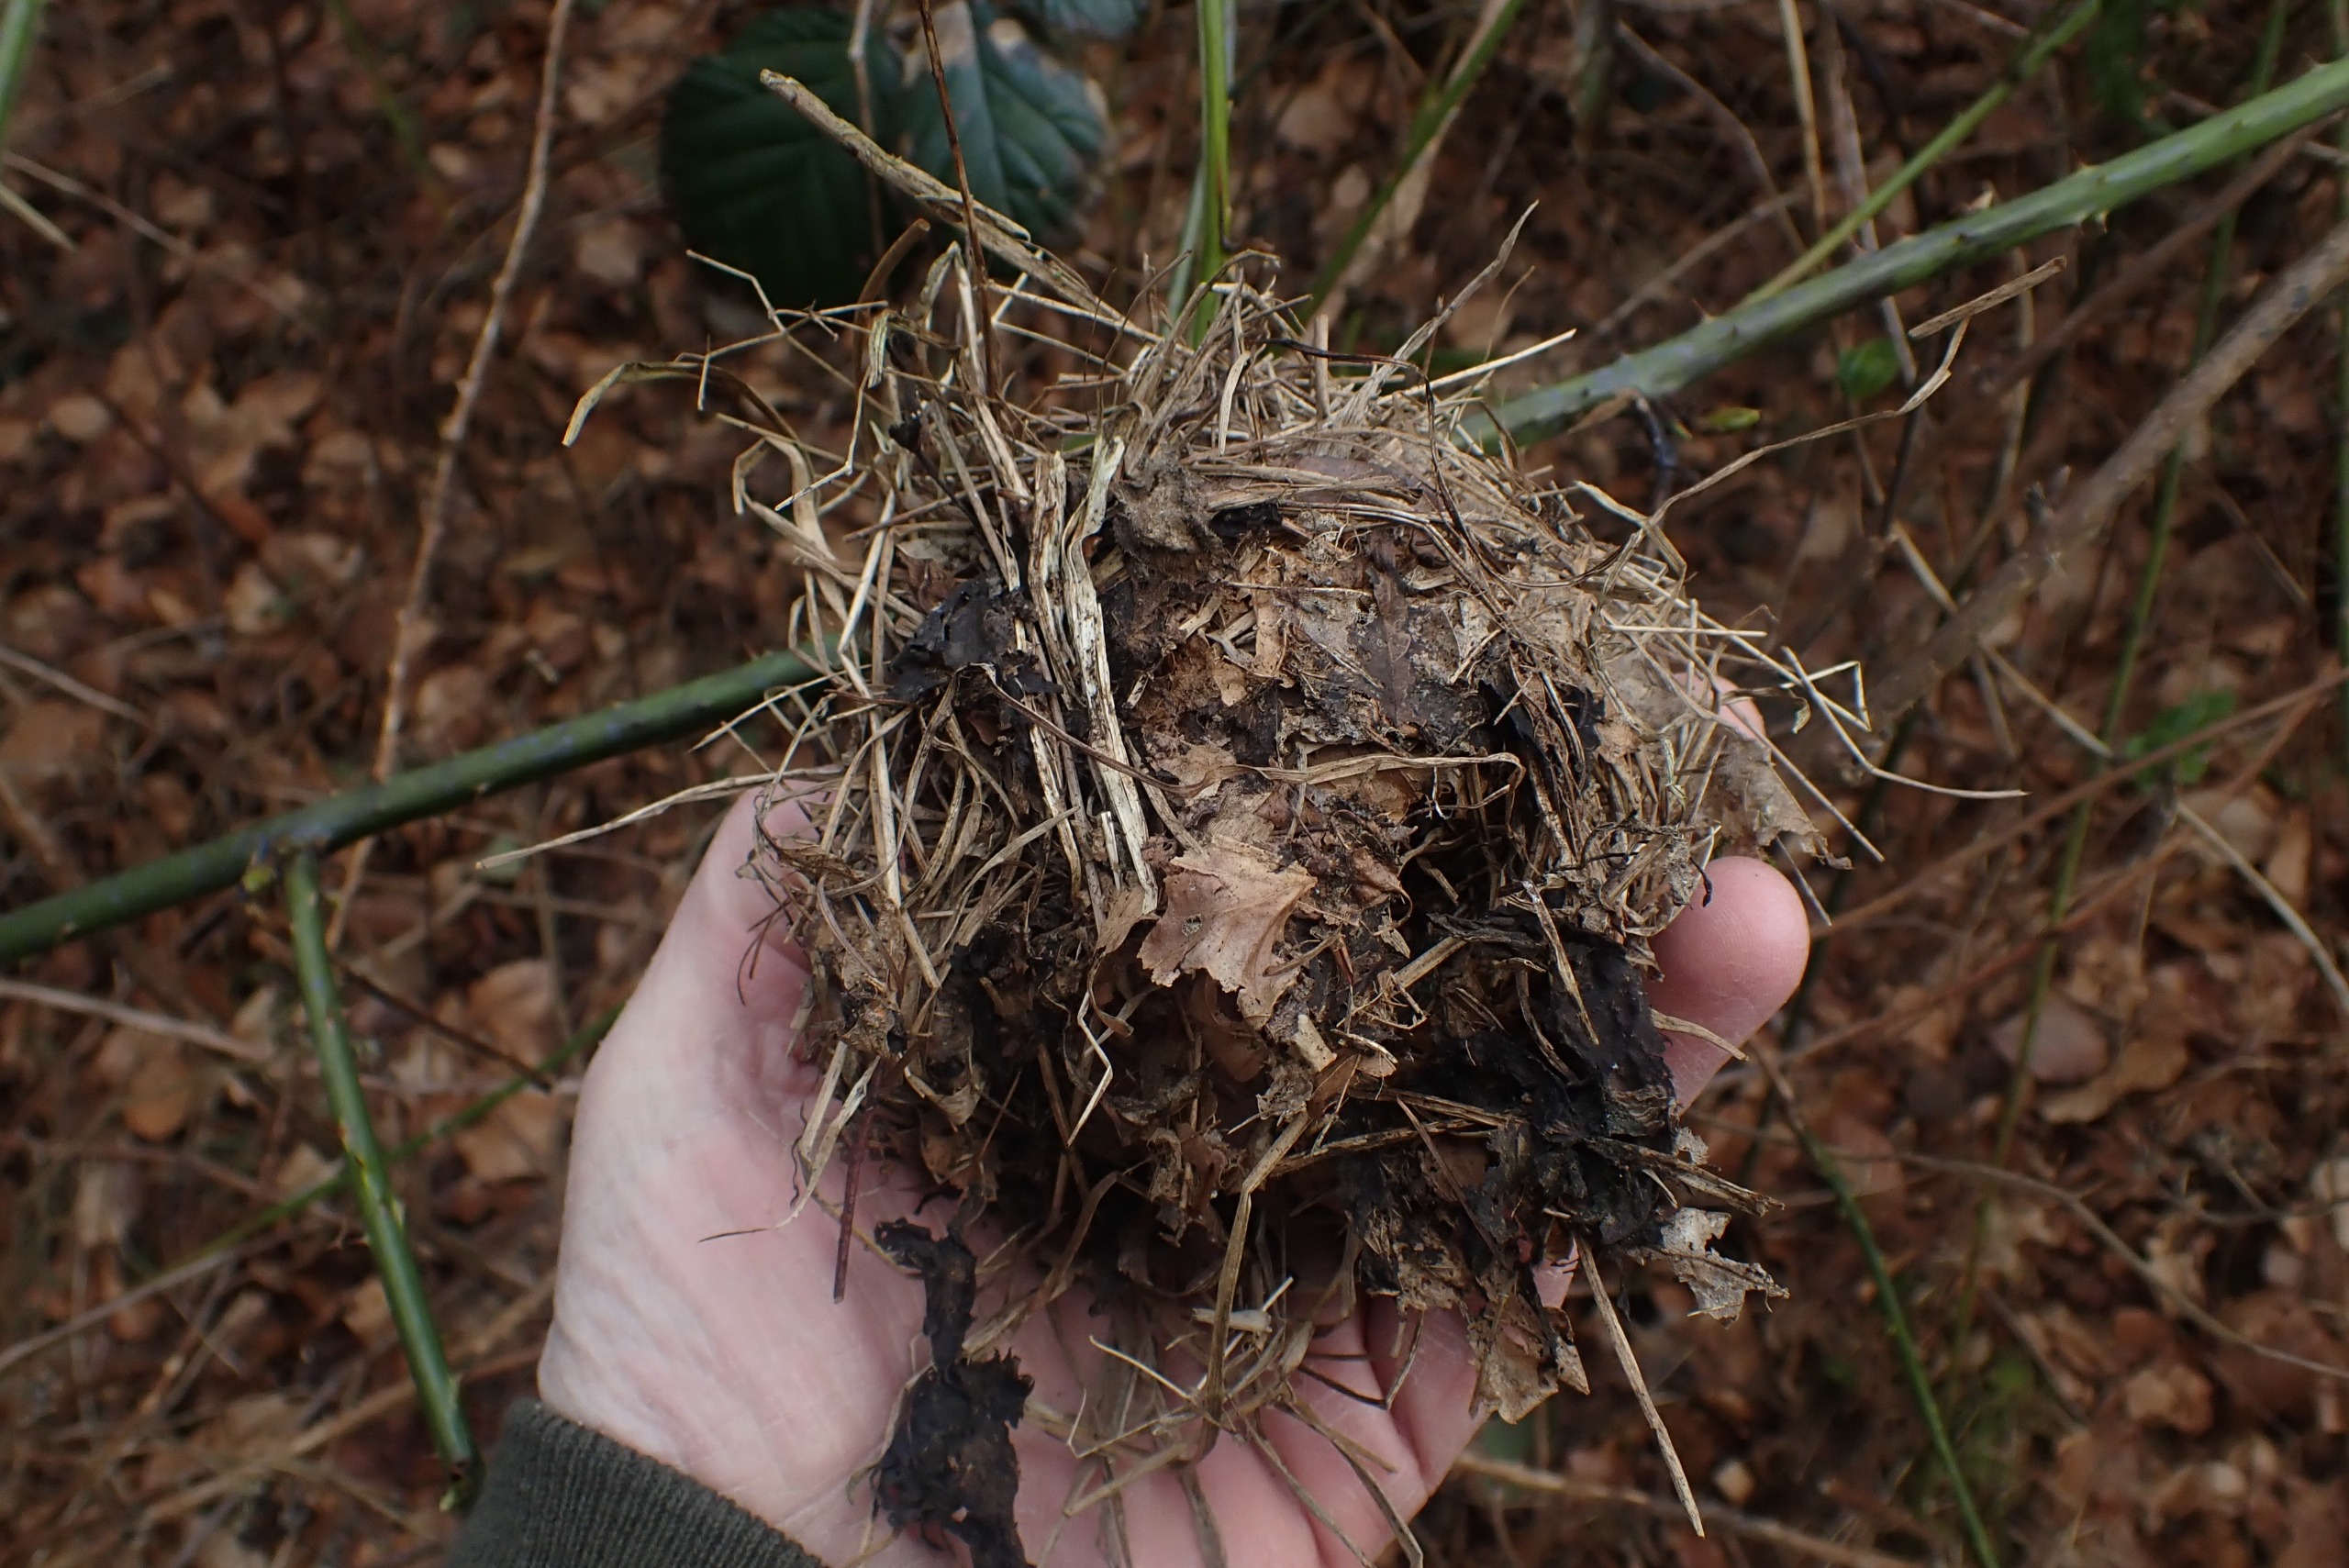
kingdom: Animalia
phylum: Chordata
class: Mammalia
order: Rodentia
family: Gliridae
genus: Muscardinus
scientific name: Muscardinus avellanarius
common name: Hasselmus
